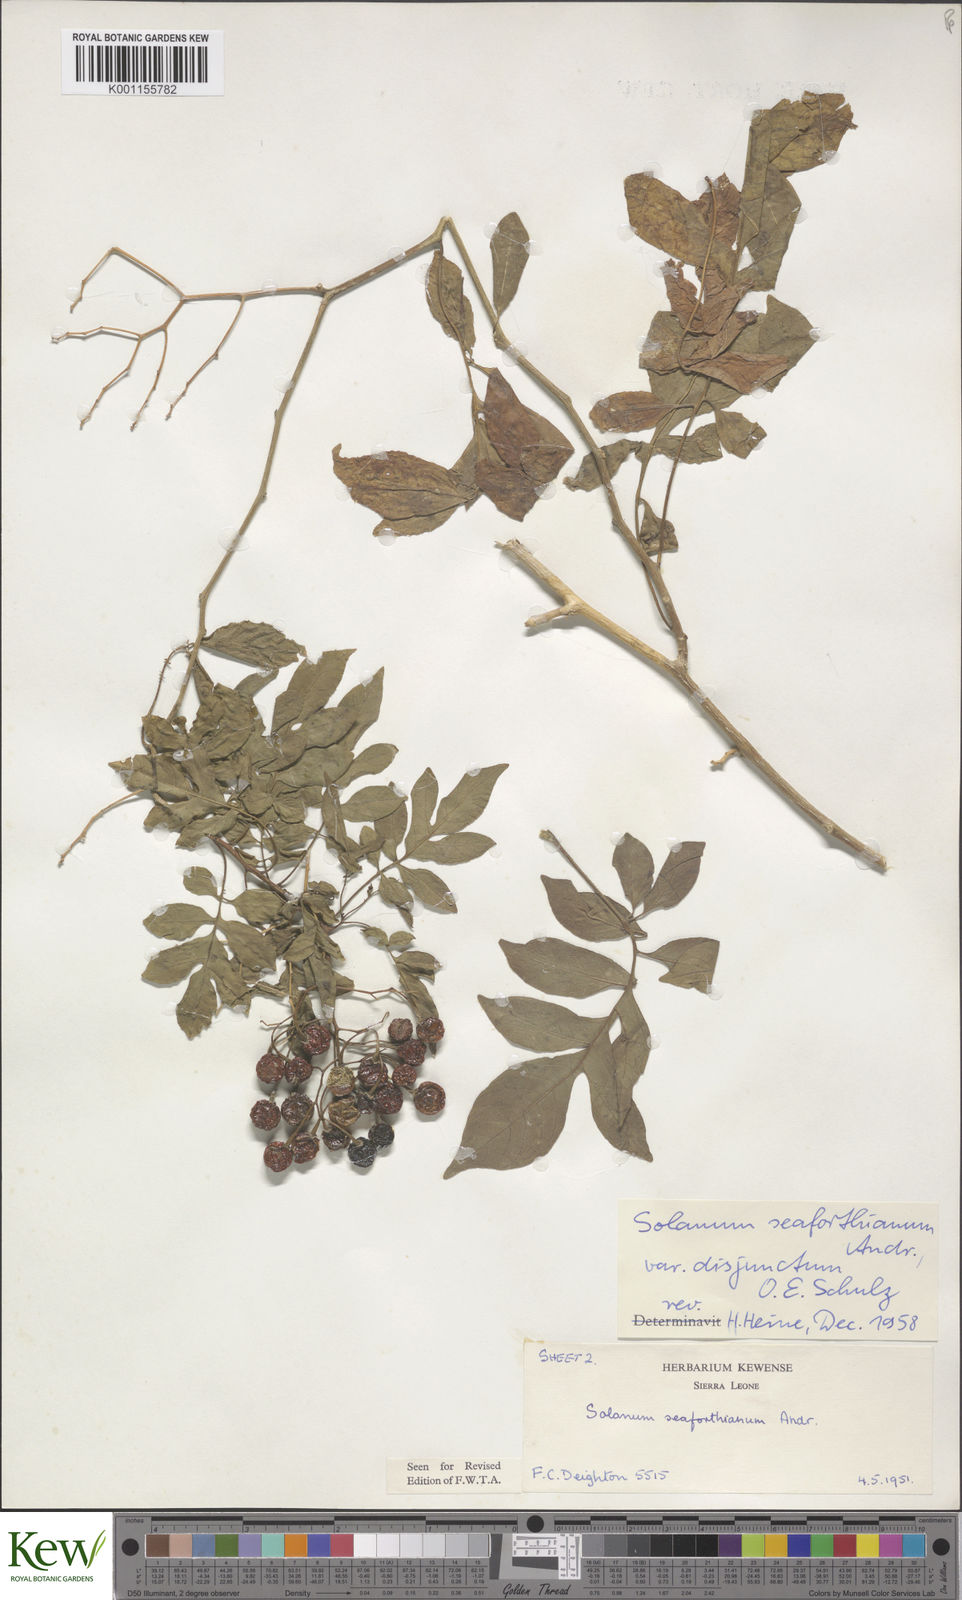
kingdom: Plantae
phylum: Tracheophyta
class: Magnoliopsida
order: Solanales
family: Solanaceae
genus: Solanum
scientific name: Solanum seaforthianum
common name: Brazilian nightshade
